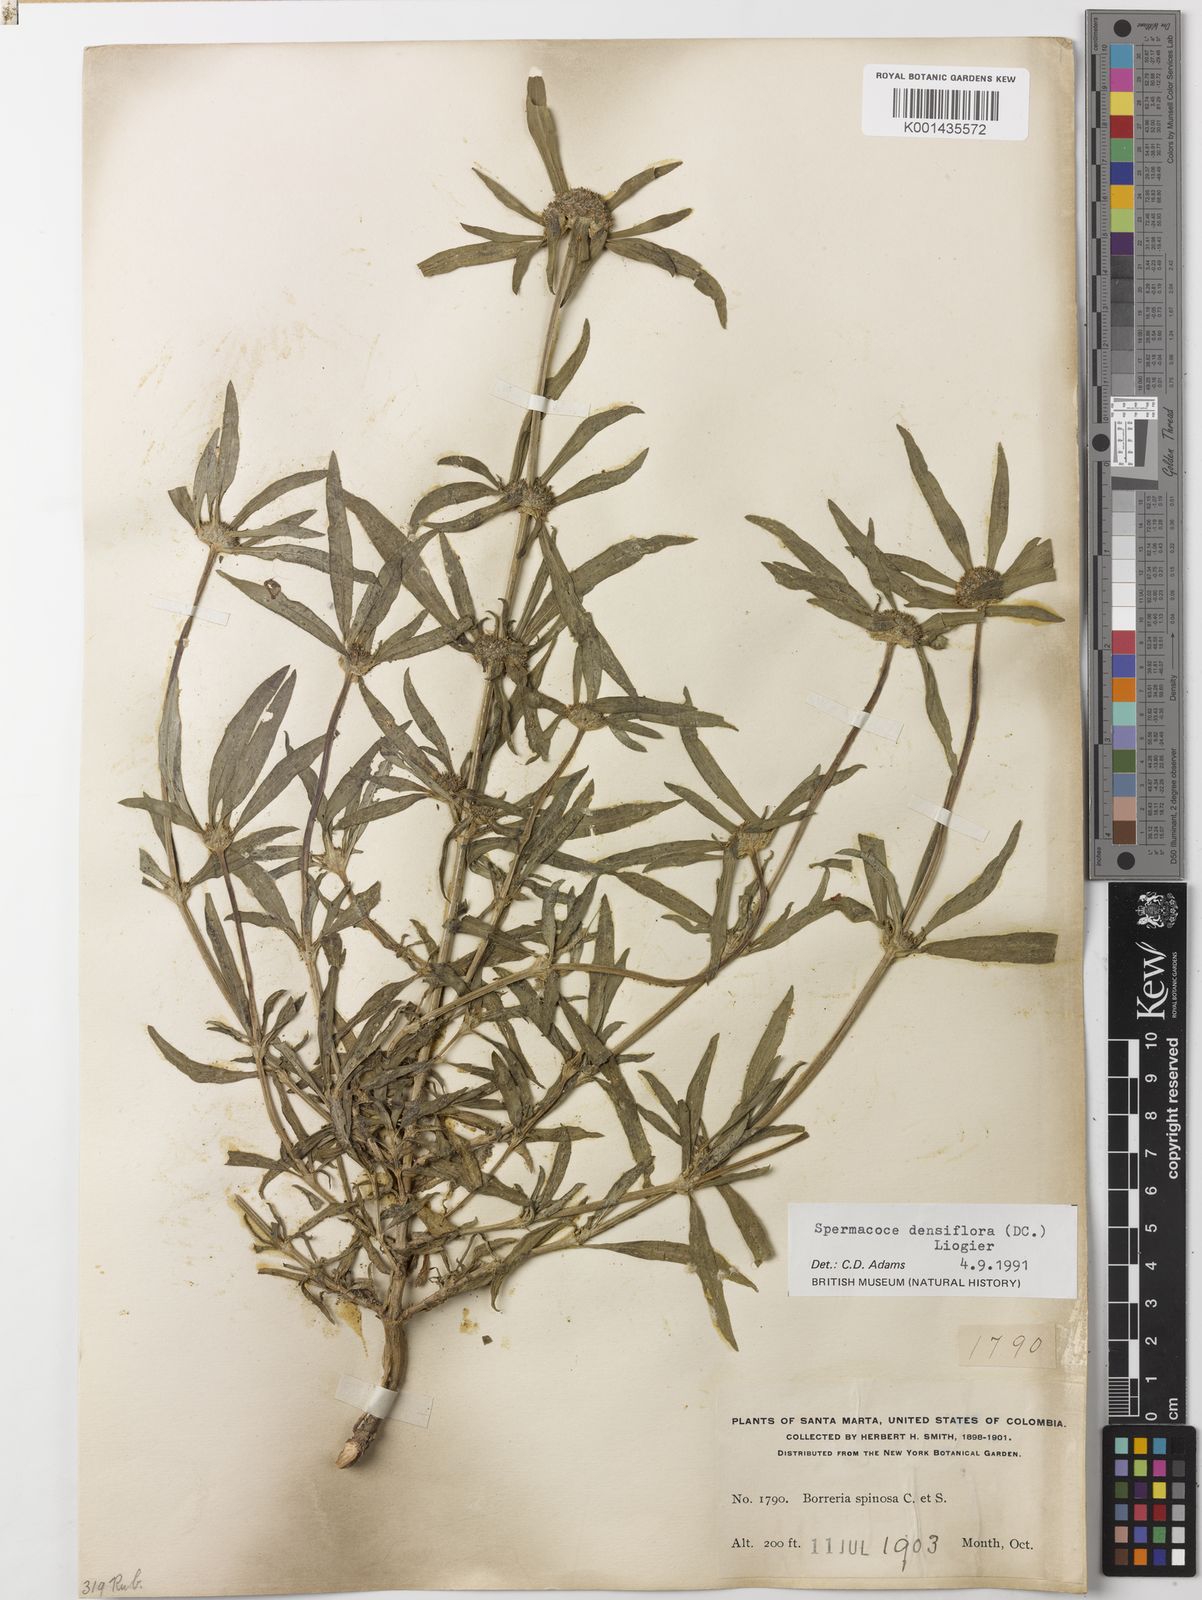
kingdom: Plantae
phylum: Tracheophyta
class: Magnoliopsida
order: Gentianales
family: Rubiaceae
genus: Spermacoce
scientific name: Spermacoce densiflora
